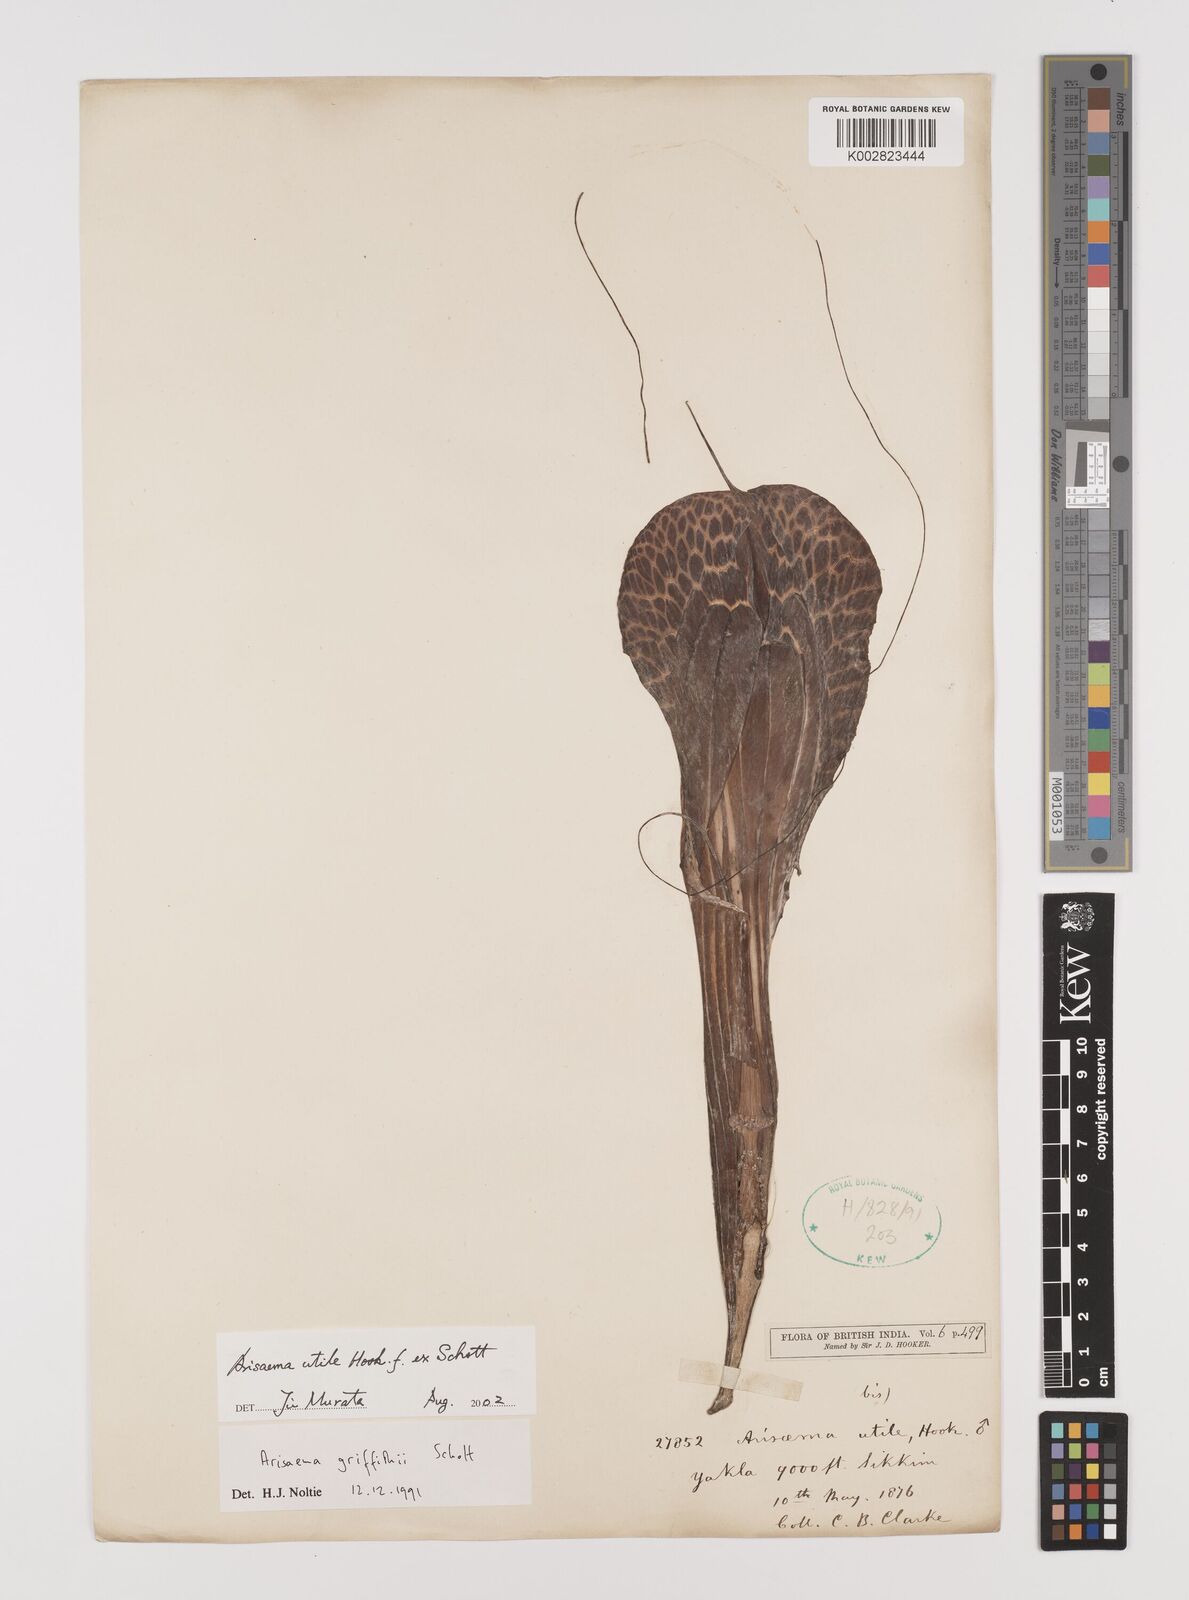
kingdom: Plantae
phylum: Tracheophyta
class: Liliopsida
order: Alismatales
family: Araceae
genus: Arisaema
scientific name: Arisaema utile
